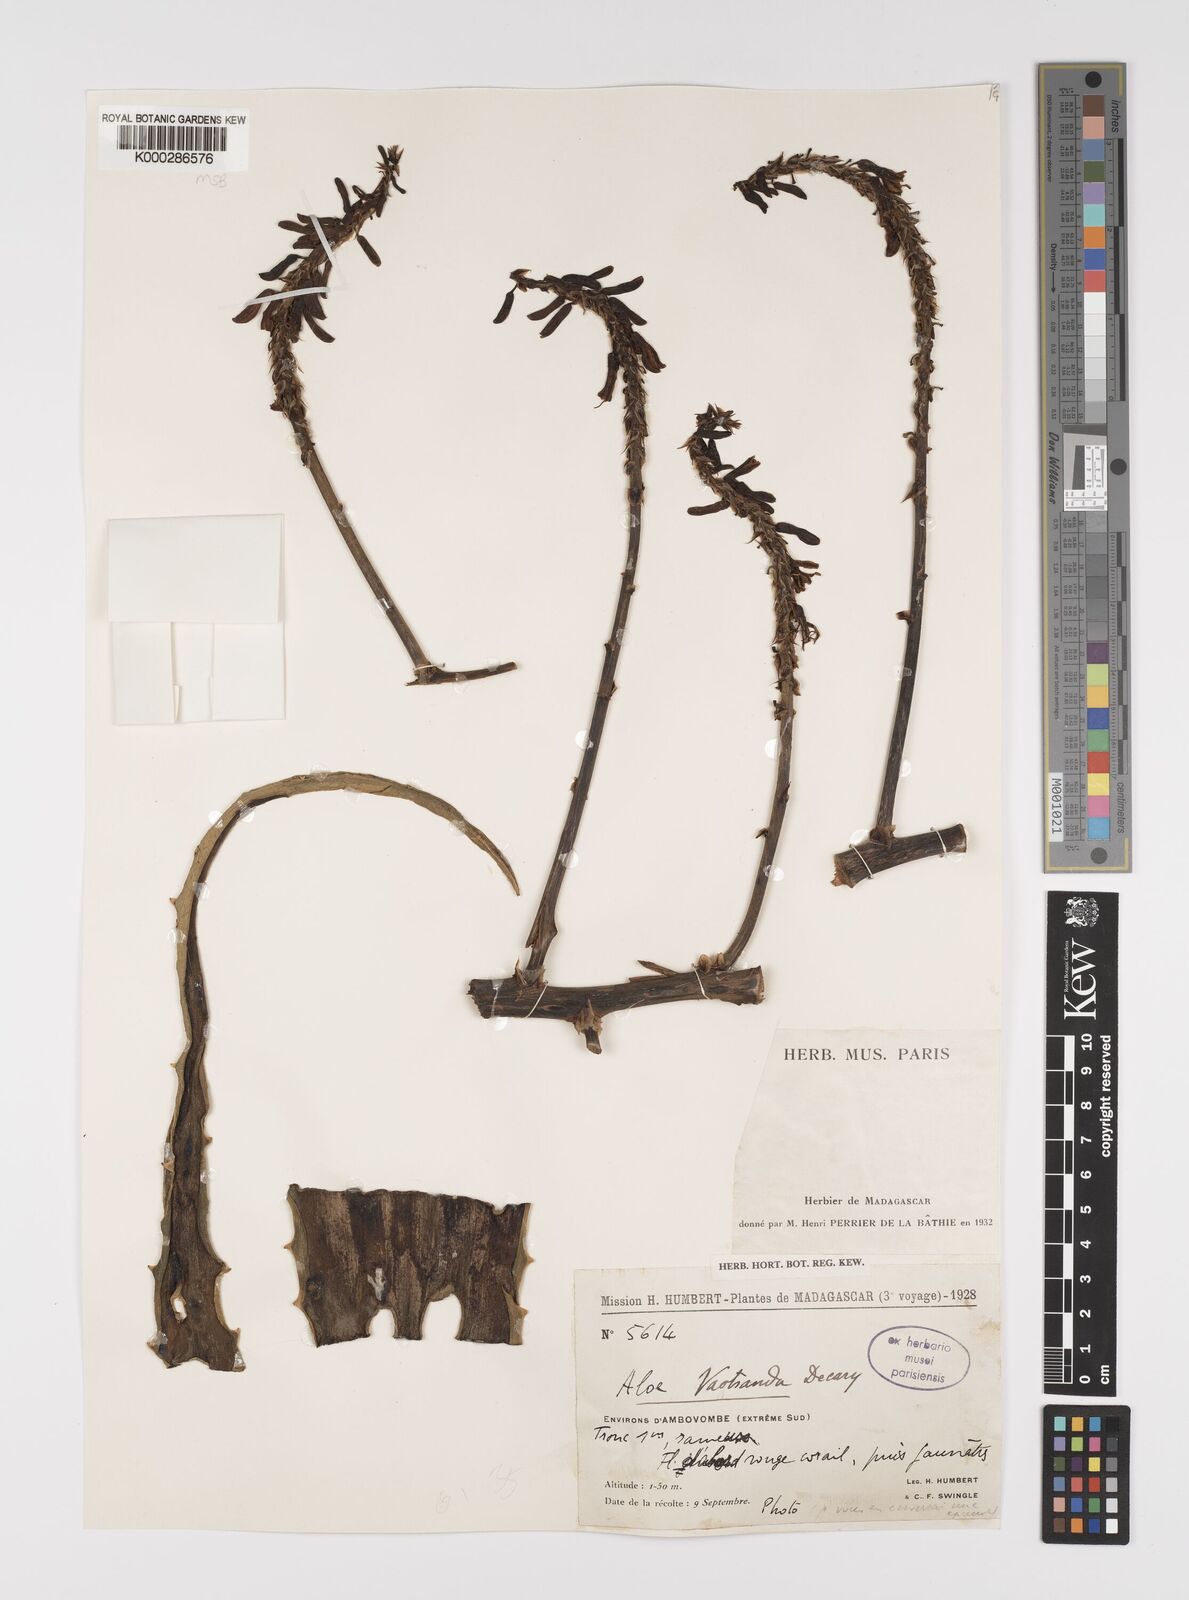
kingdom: Plantae
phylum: Tracheophyta
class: Liliopsida
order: Asparagales
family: Asphodelaceae
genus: Aloe
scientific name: Aloe vaotsanda
